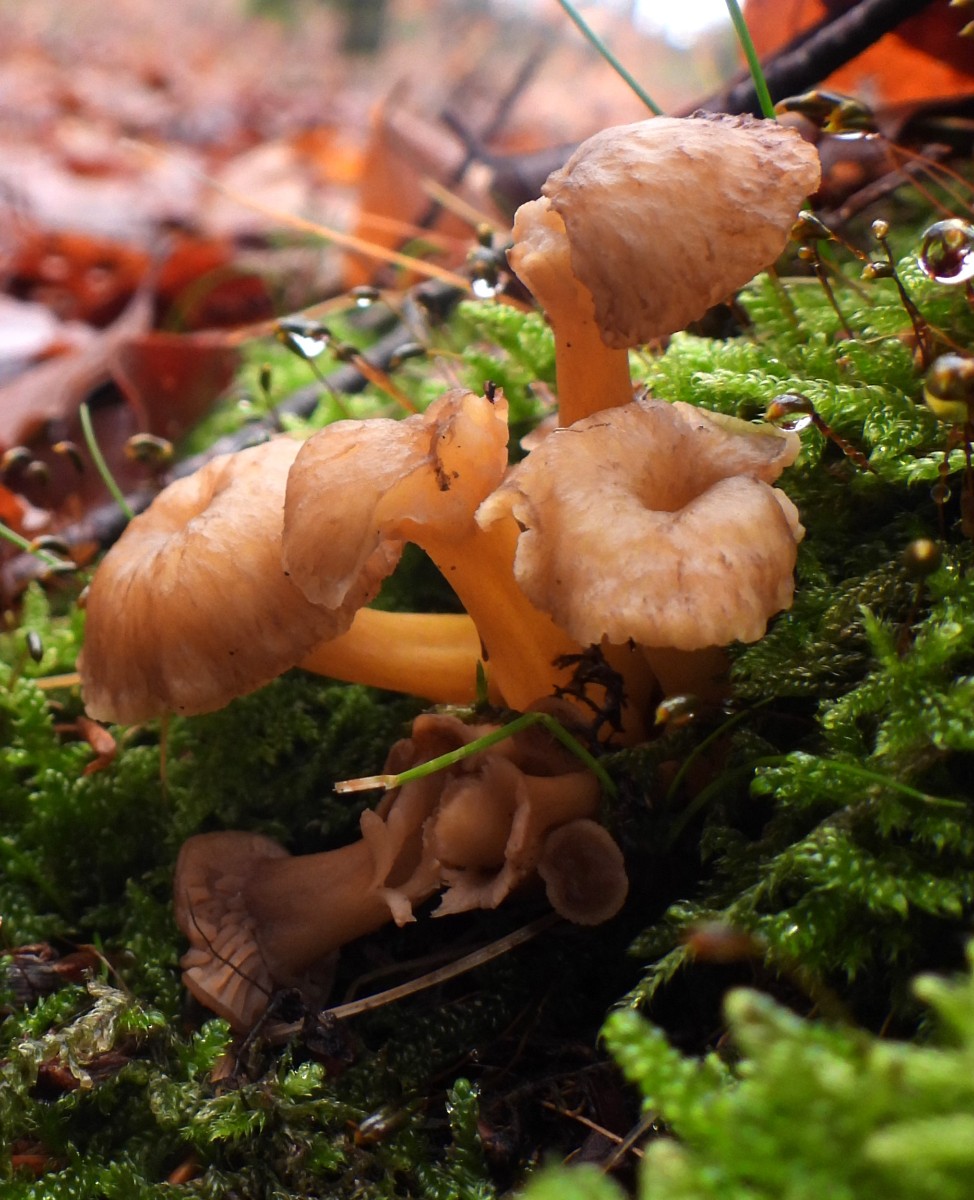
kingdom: Fungi
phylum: Basidiomycota
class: Agaricomycetes
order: Cantharellales
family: Hydnaceae
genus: Craterellus
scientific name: Craterellus tubaeformis
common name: tragt-kantarel
